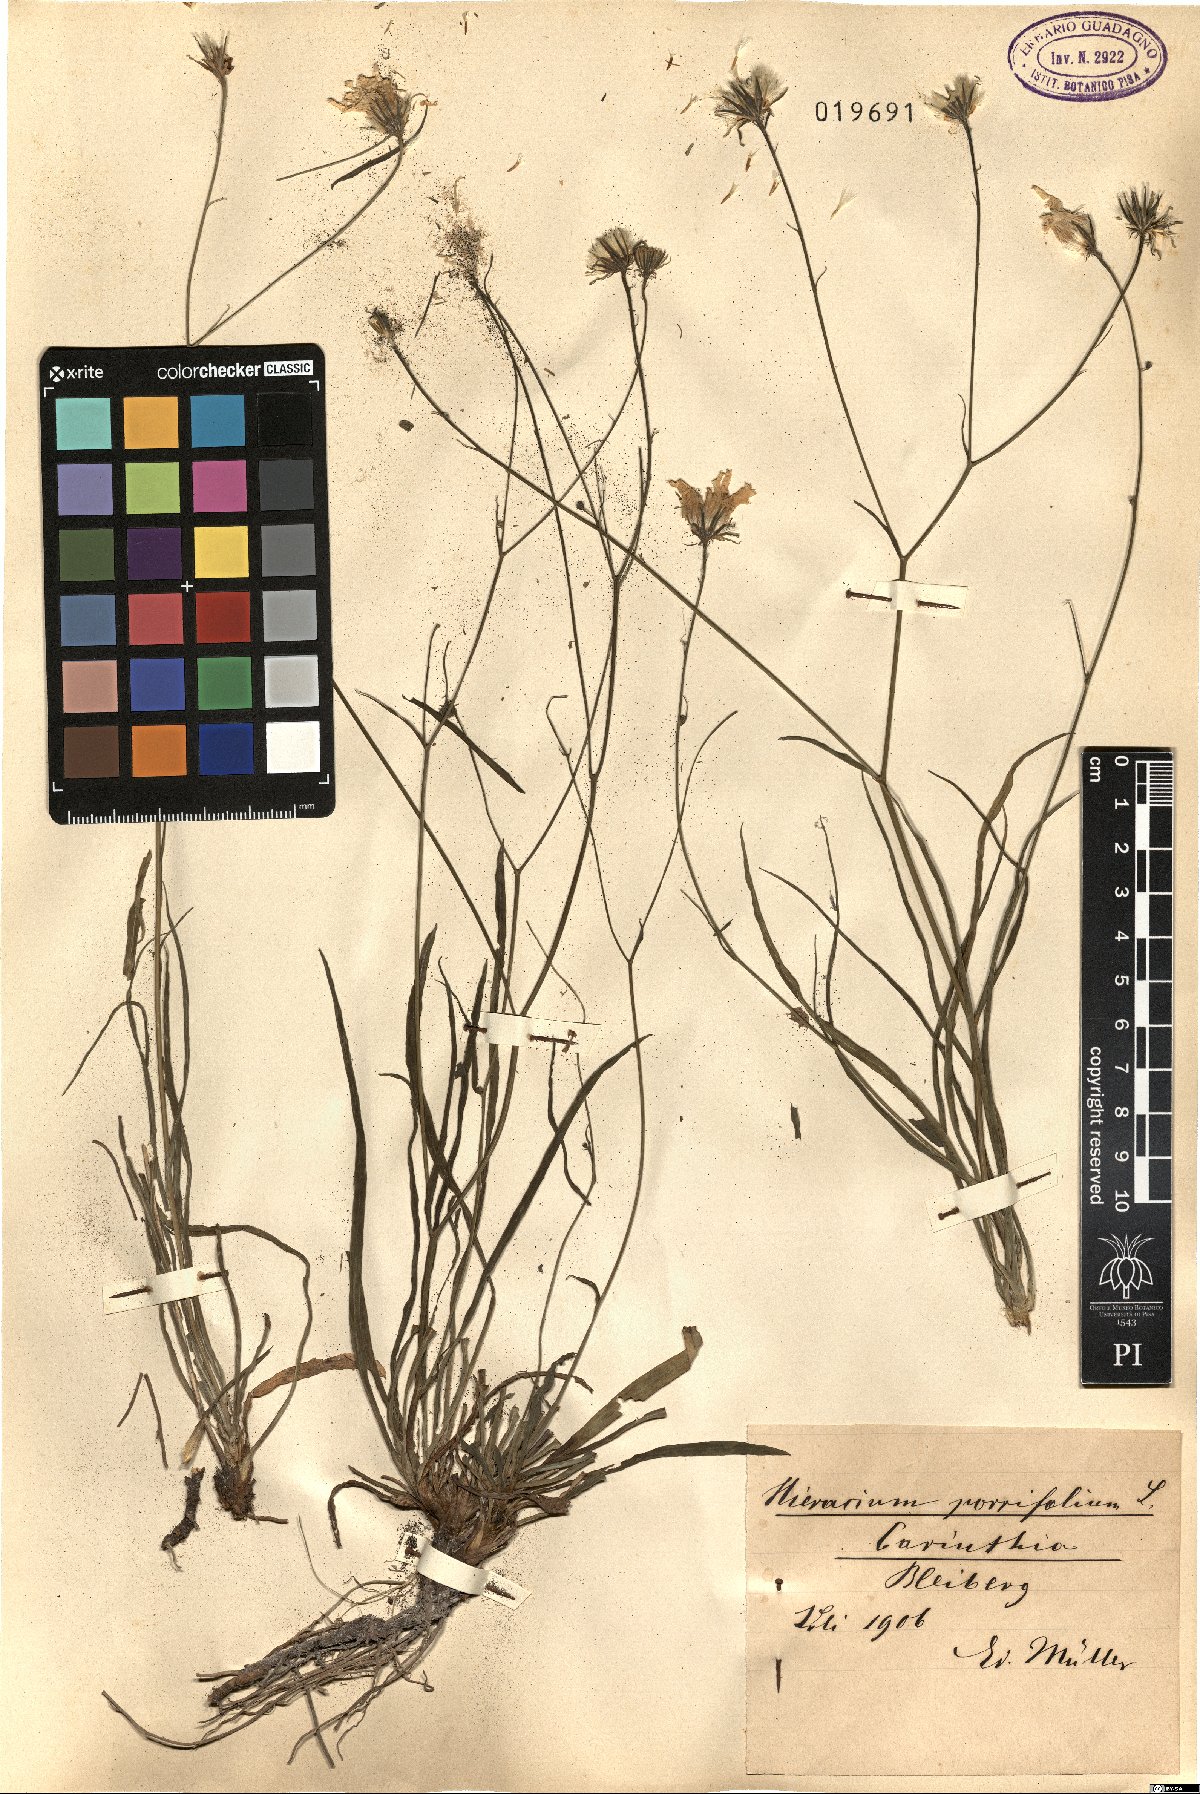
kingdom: Plantae
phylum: Tracheophyta
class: Magnoliopsida
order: Asterales
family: Asteraceae
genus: Hieracium
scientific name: Hieracium porrifolium
